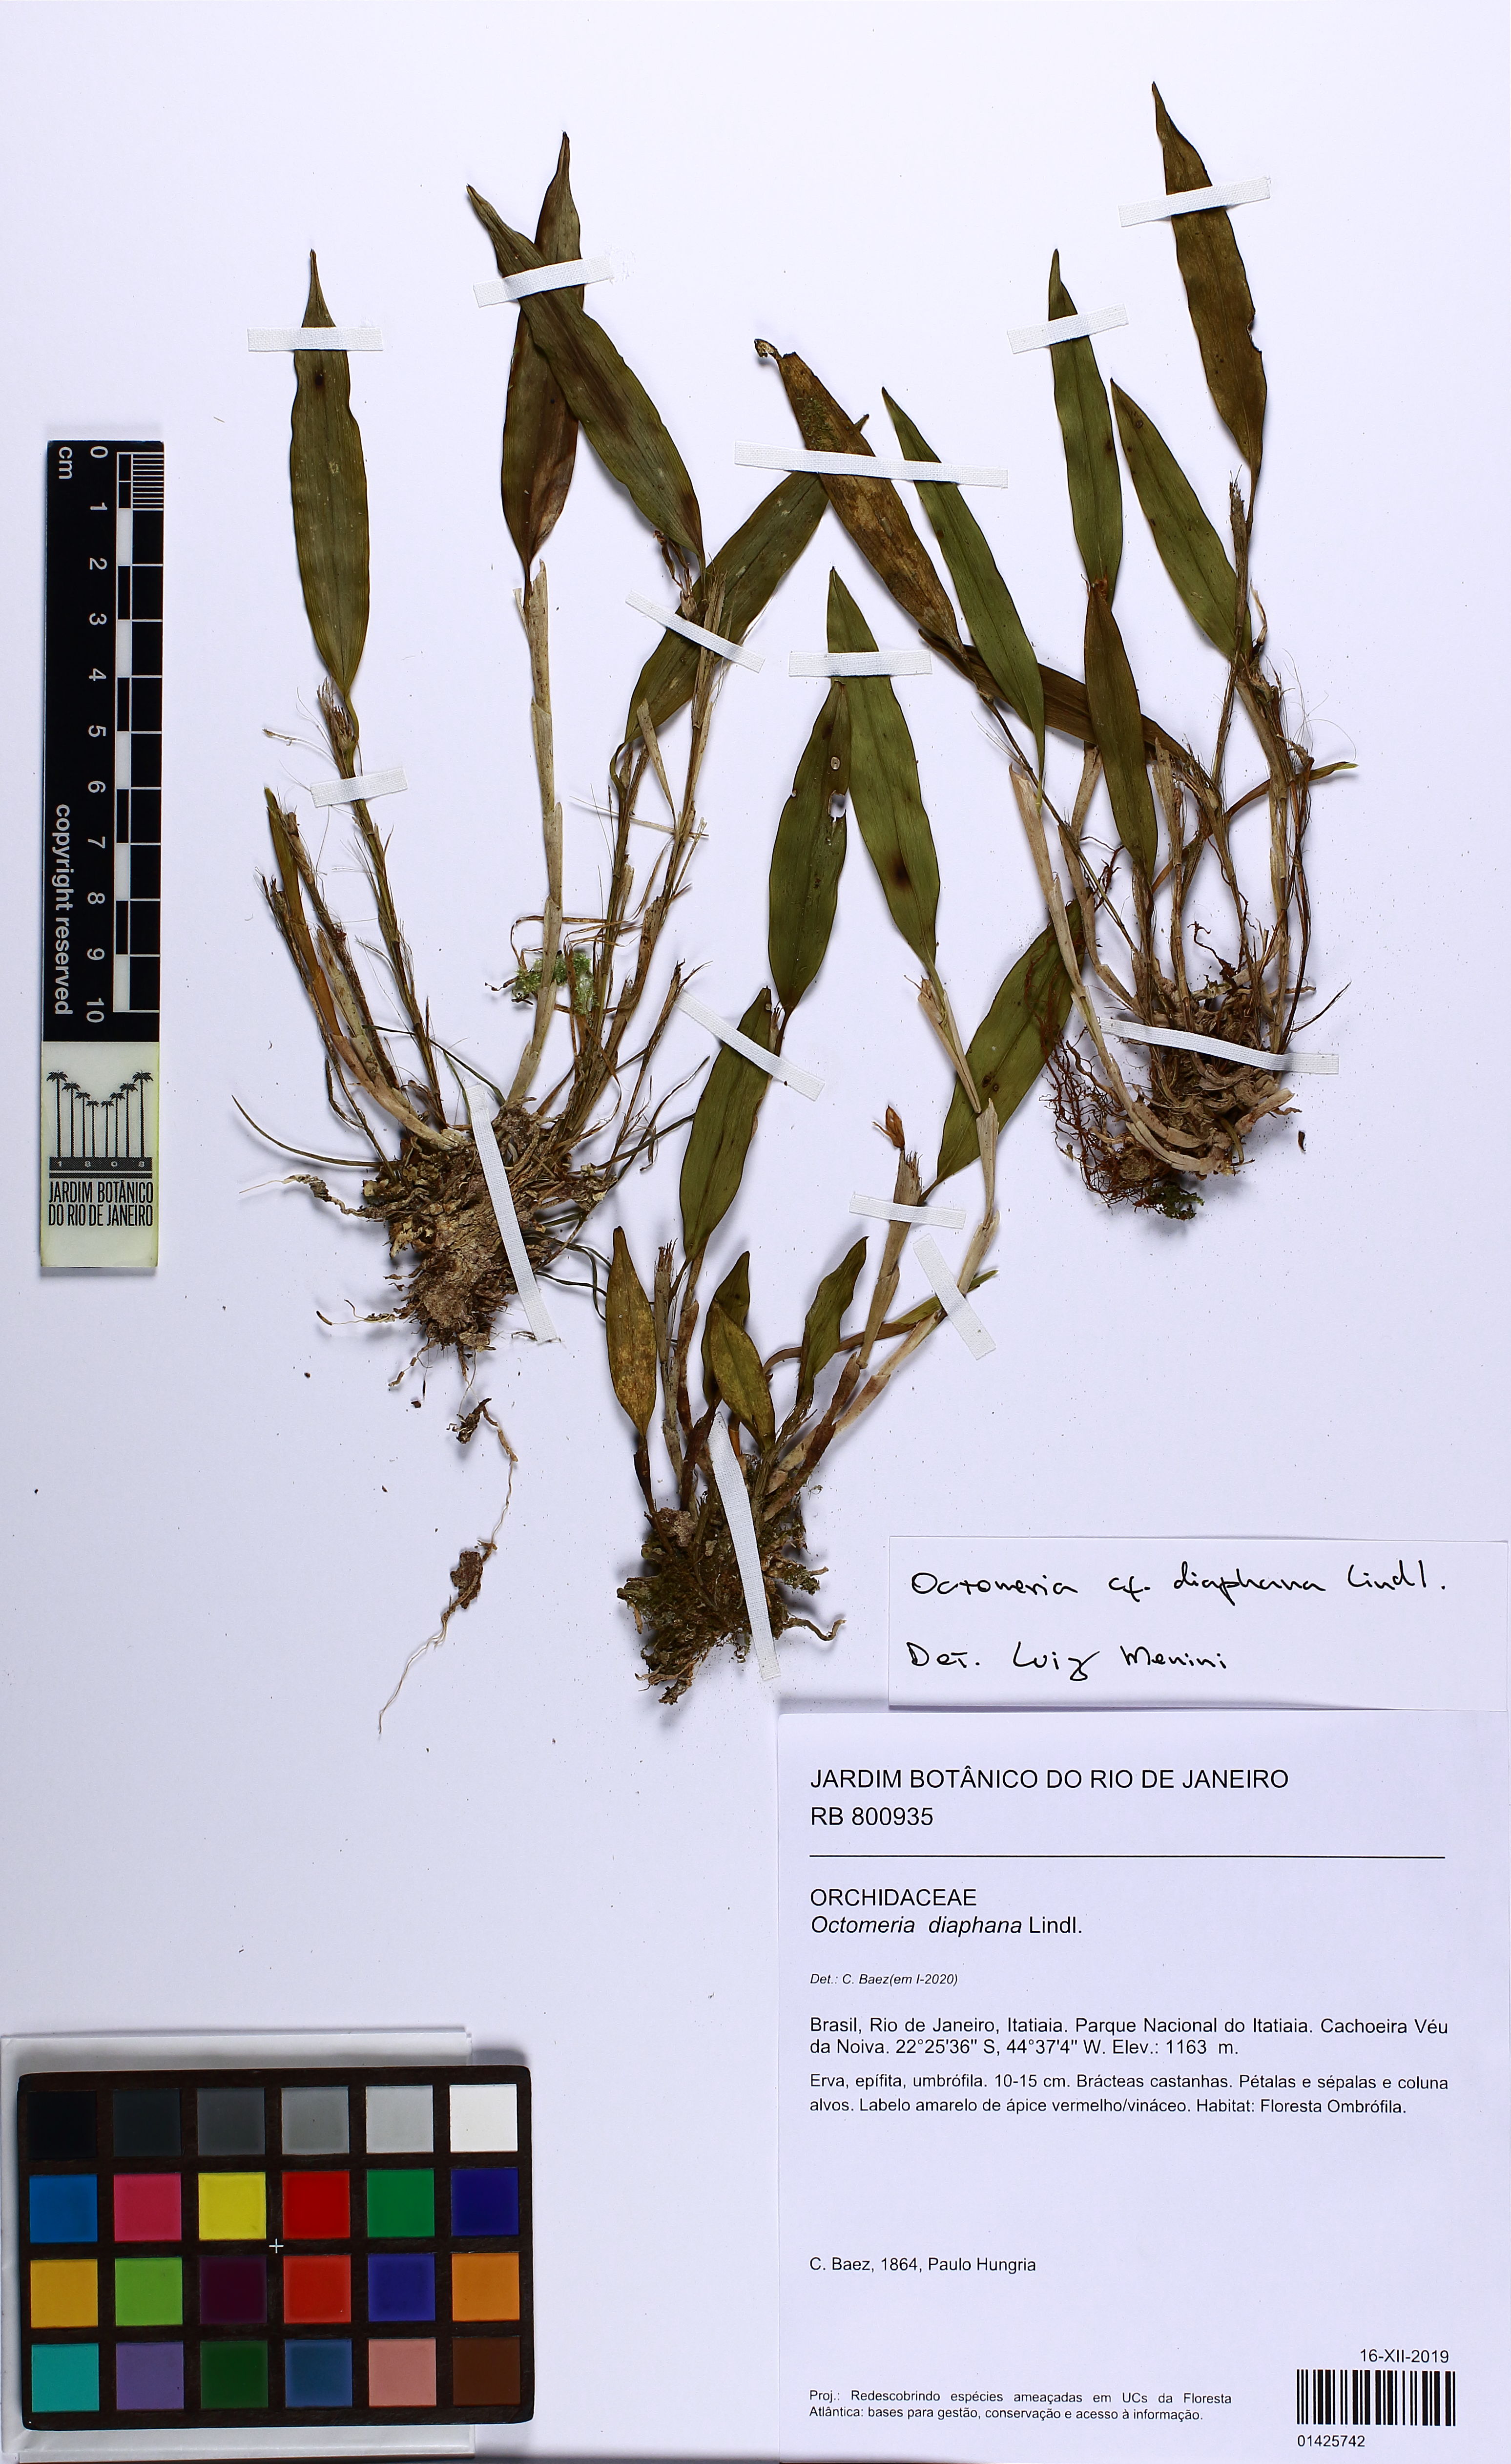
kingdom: Plantae
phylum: Tracheophyta
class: Liliopsida
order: Asparagales
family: Orchidaceae
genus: Octomeria
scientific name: Octomeria diaphana
